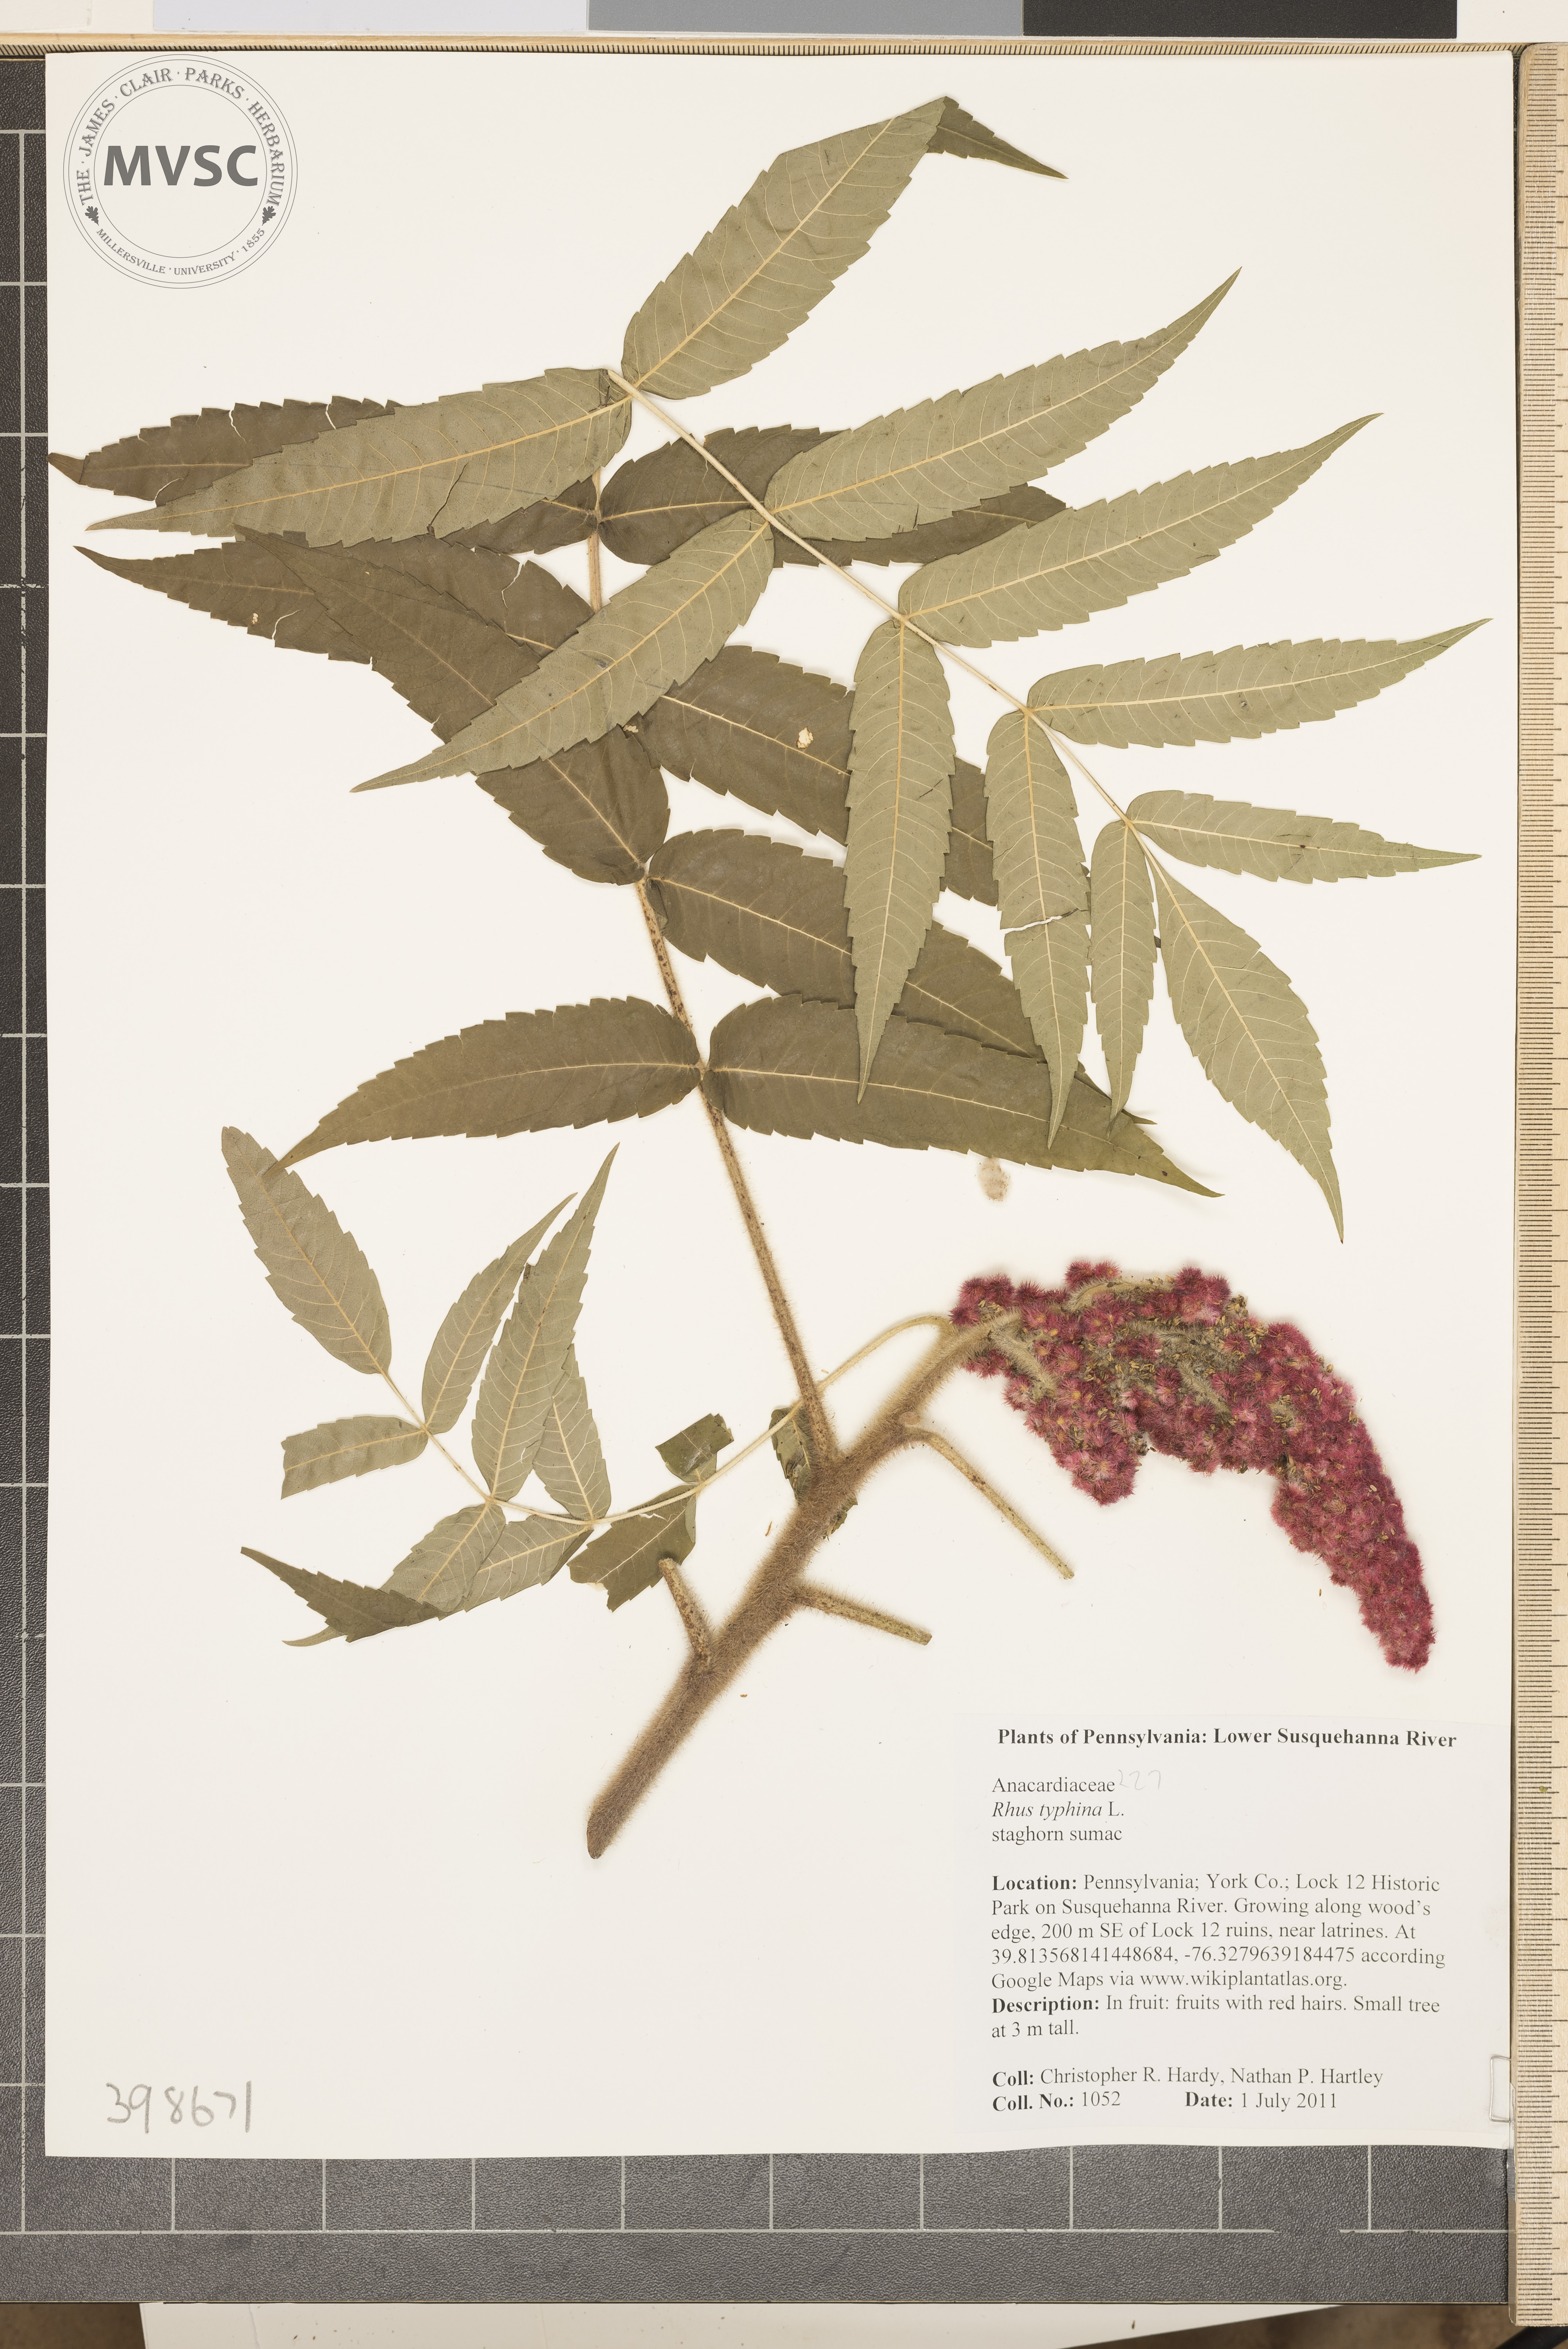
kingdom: Plantae
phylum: Tracheophyta
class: Magnoliopsida
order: Sapindales
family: Anacardiaceae
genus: Rhus
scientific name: Rhus typhina
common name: Staghorn sumac
